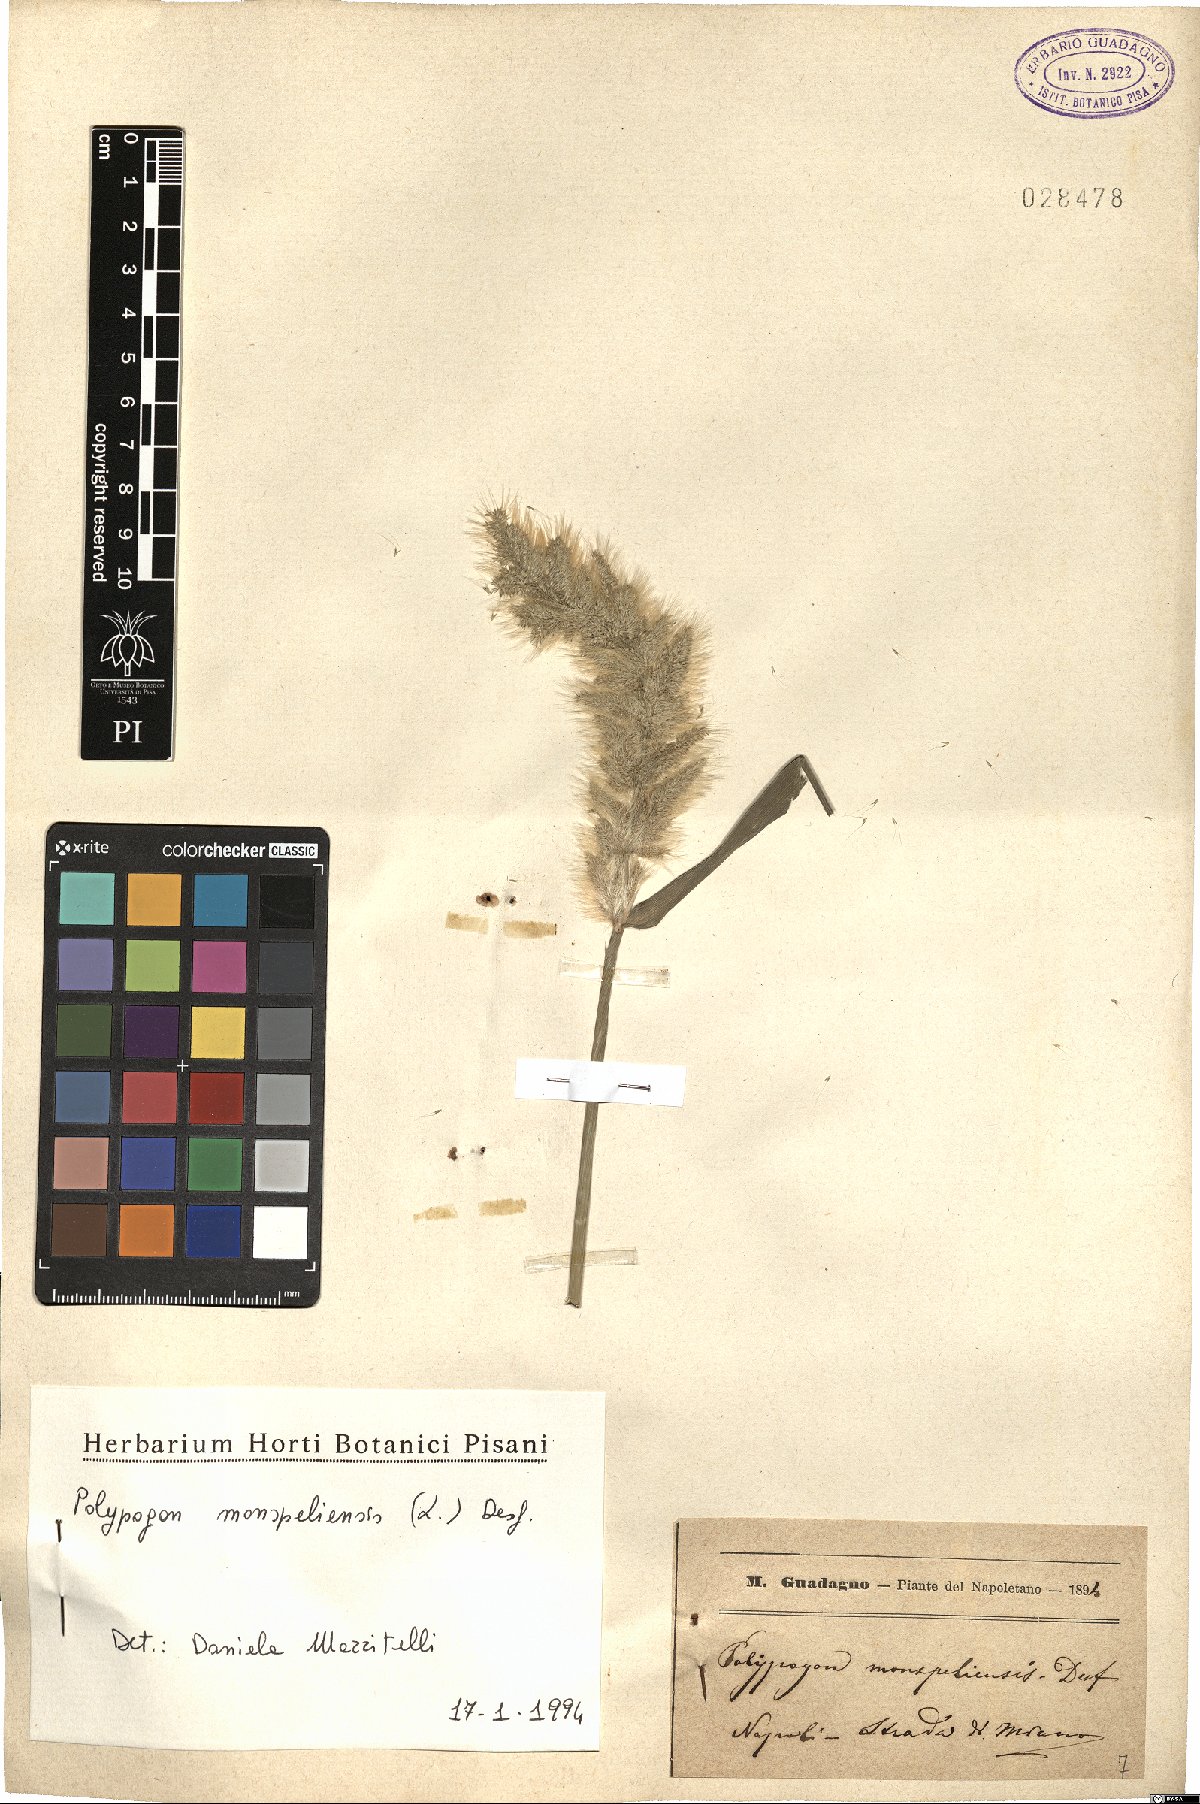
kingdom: Plantae
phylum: Tracheophyta
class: Liliopsida
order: Poales
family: Poaceae
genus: Polypogon
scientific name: Polypogon monspeliensis
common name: Annual rabbitsfoot grass
